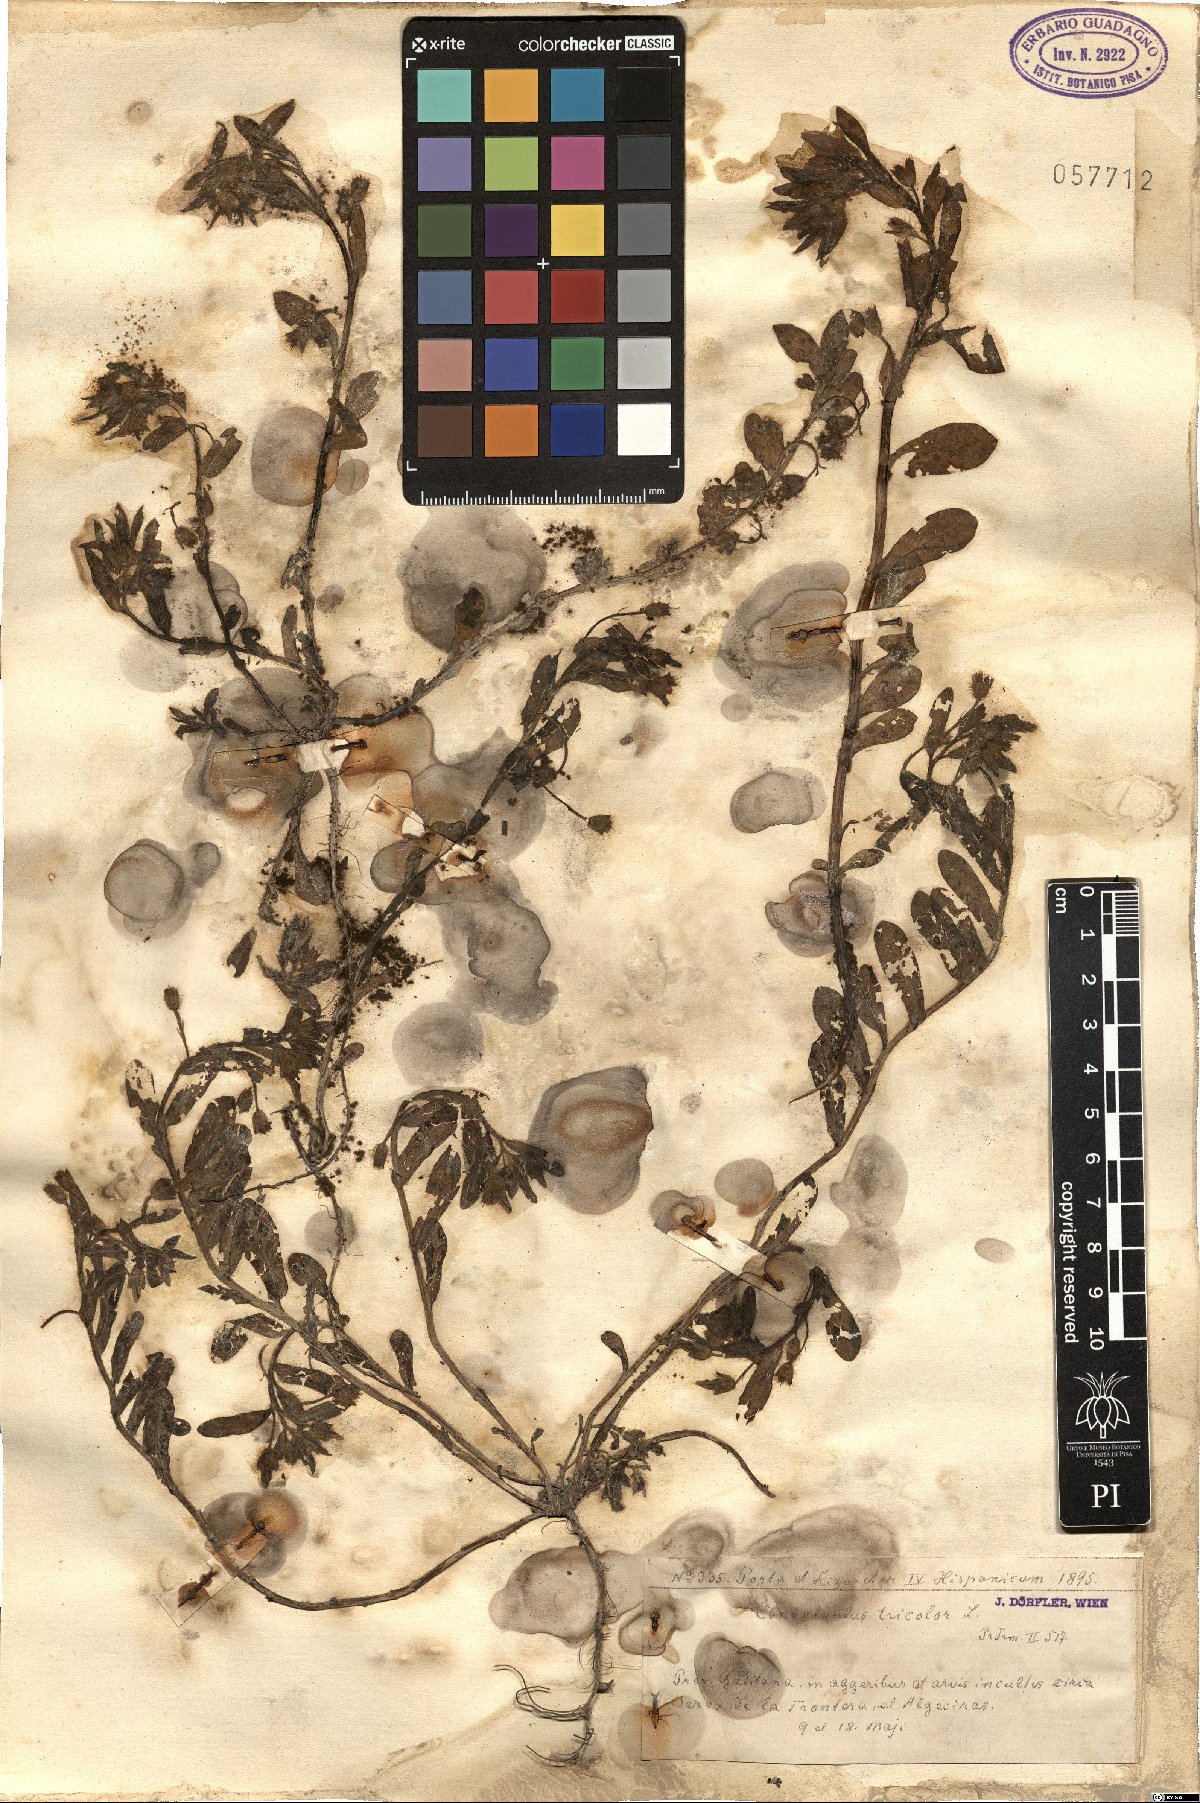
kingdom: Plantae
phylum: Tracheophyta
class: Magnoliopsida
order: Solanales
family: Convolvulaceae
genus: Convolvulus
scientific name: Convolvulus tricolor
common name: Dwarf morning-glory
